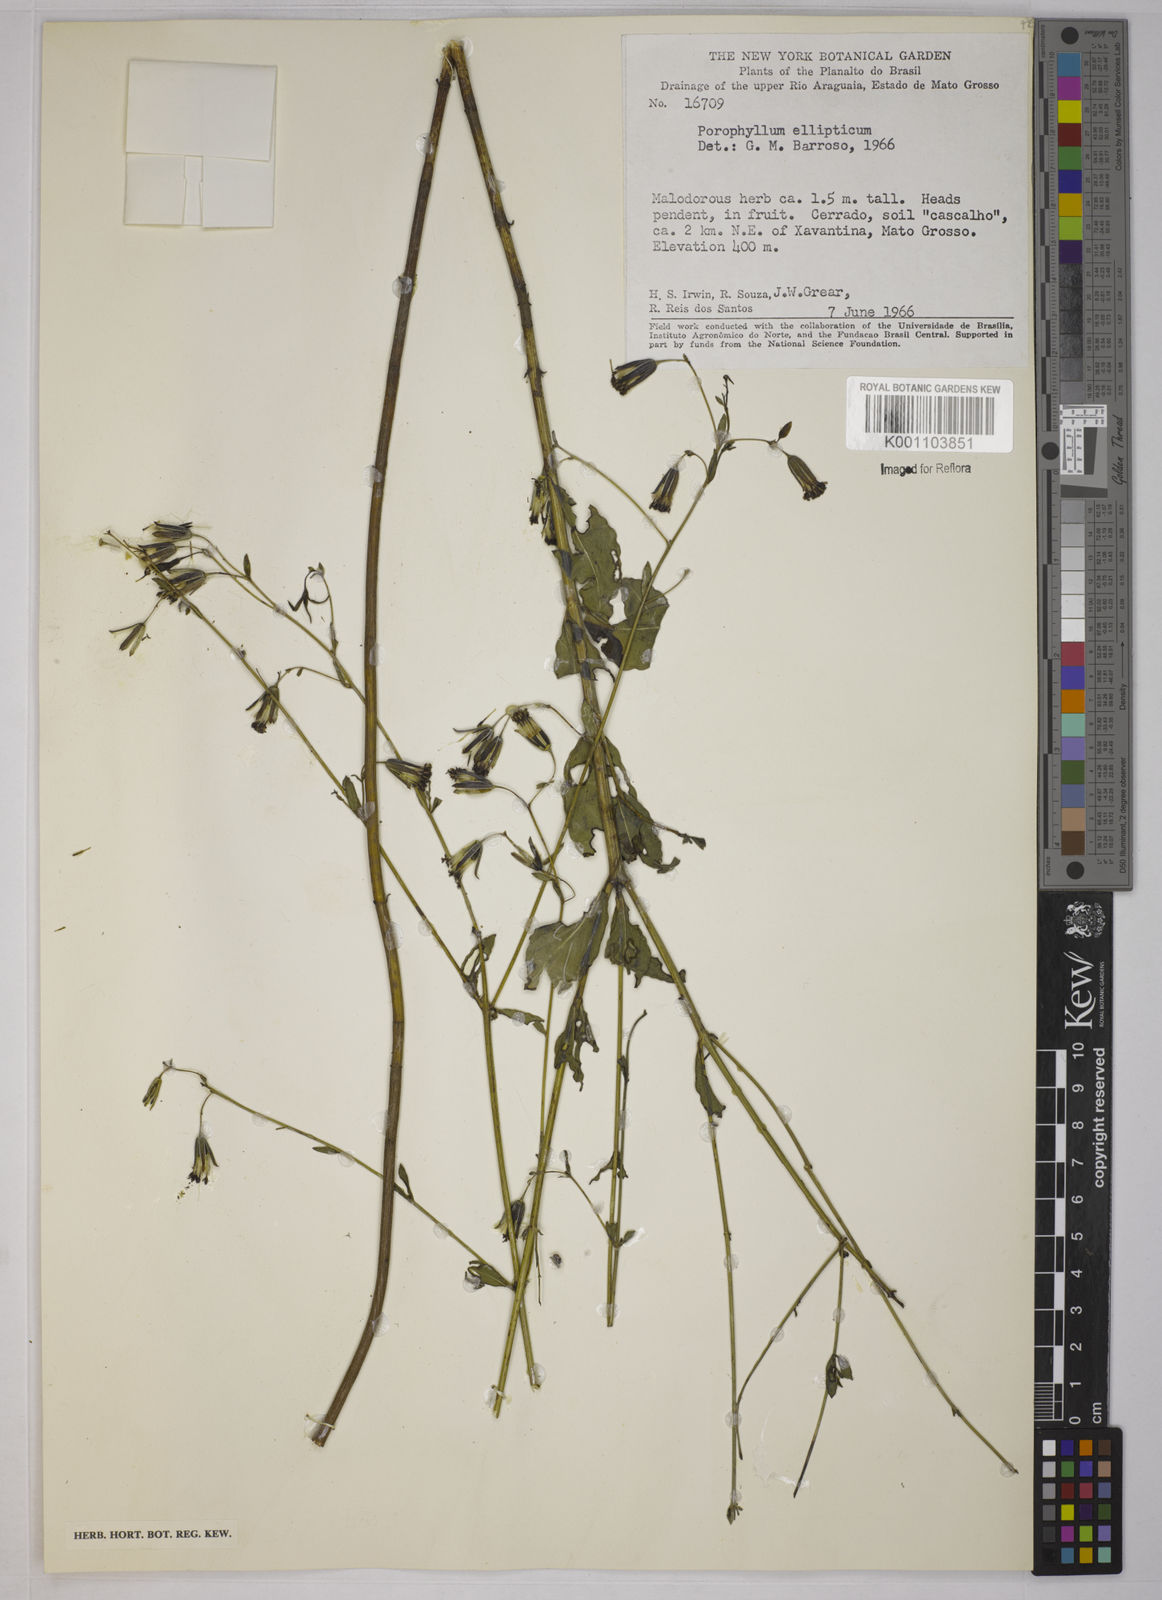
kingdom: Plantae
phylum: Tracheophyta
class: Magnoliopsida
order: Asterales
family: Asteraceae
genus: Porophyllum
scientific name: Porophyllum ruderale
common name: Yerba porosa
